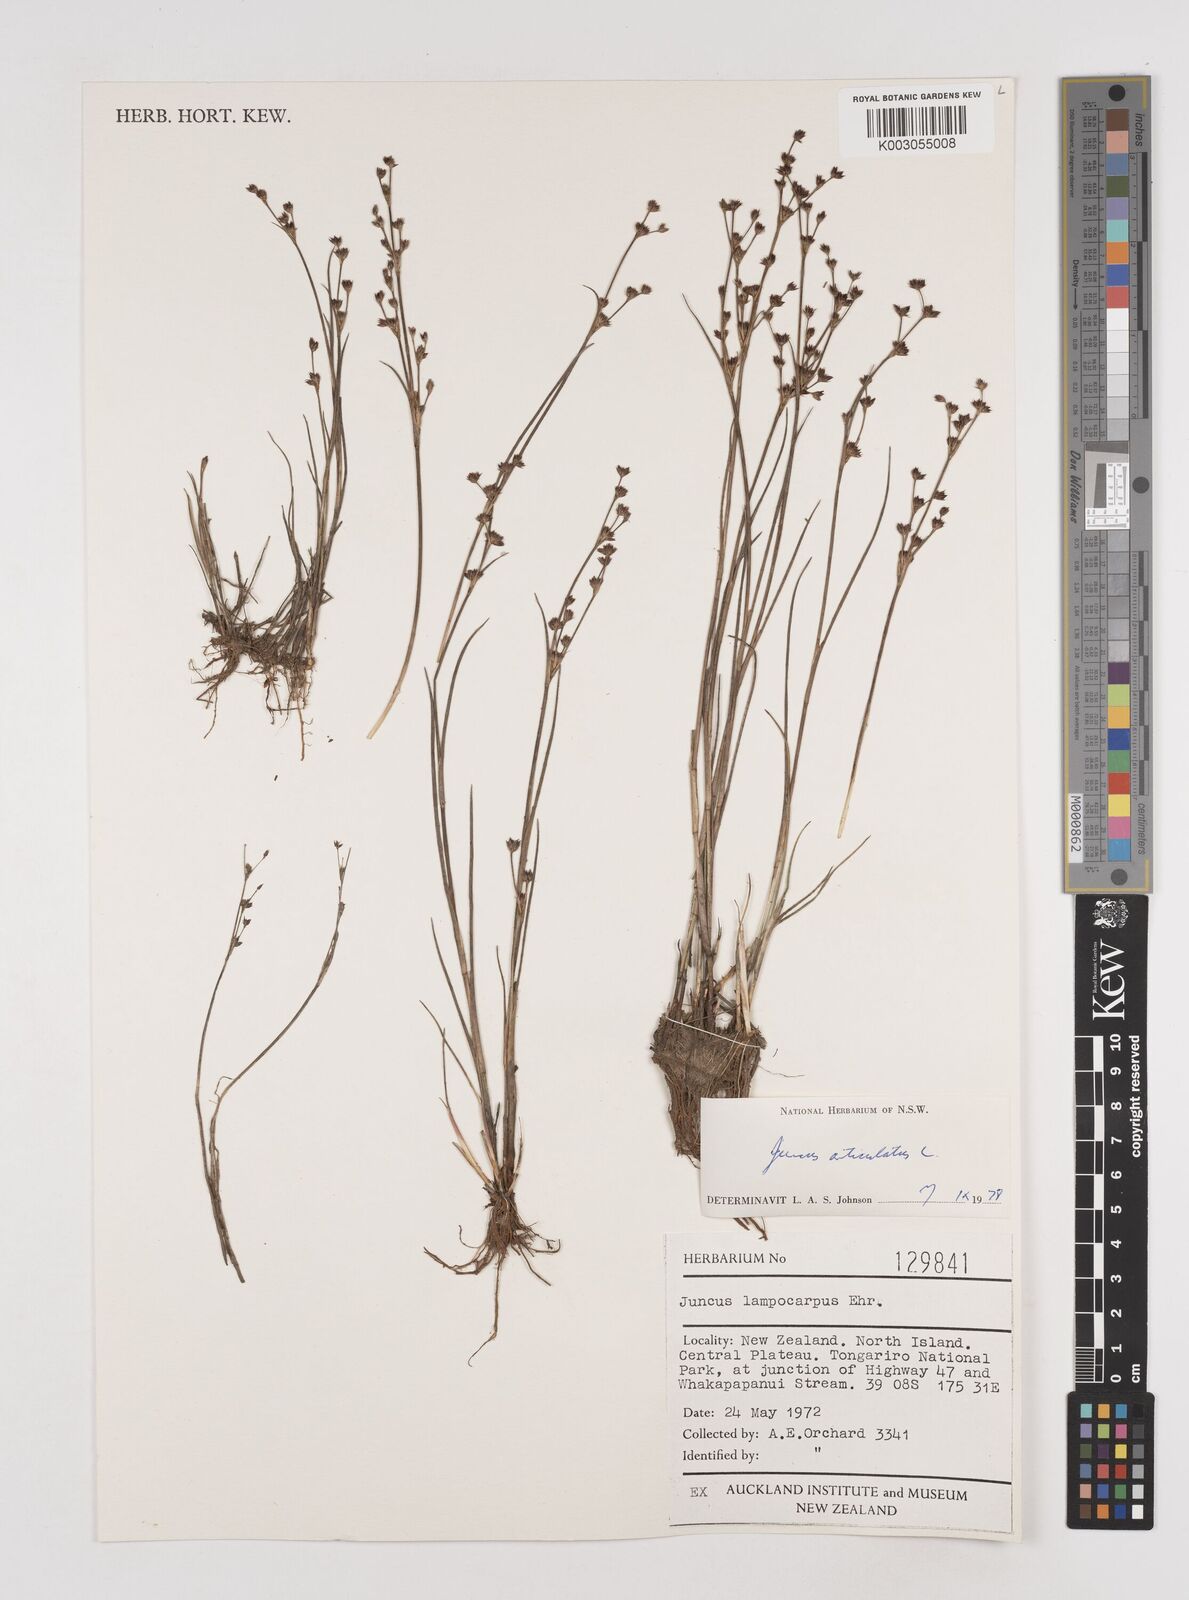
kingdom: Plantae
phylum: Tracheophyta
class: Liliopsida
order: Poales
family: Juncaceae
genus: Juncus
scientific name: Juncus articulatus
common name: Jointed rush
